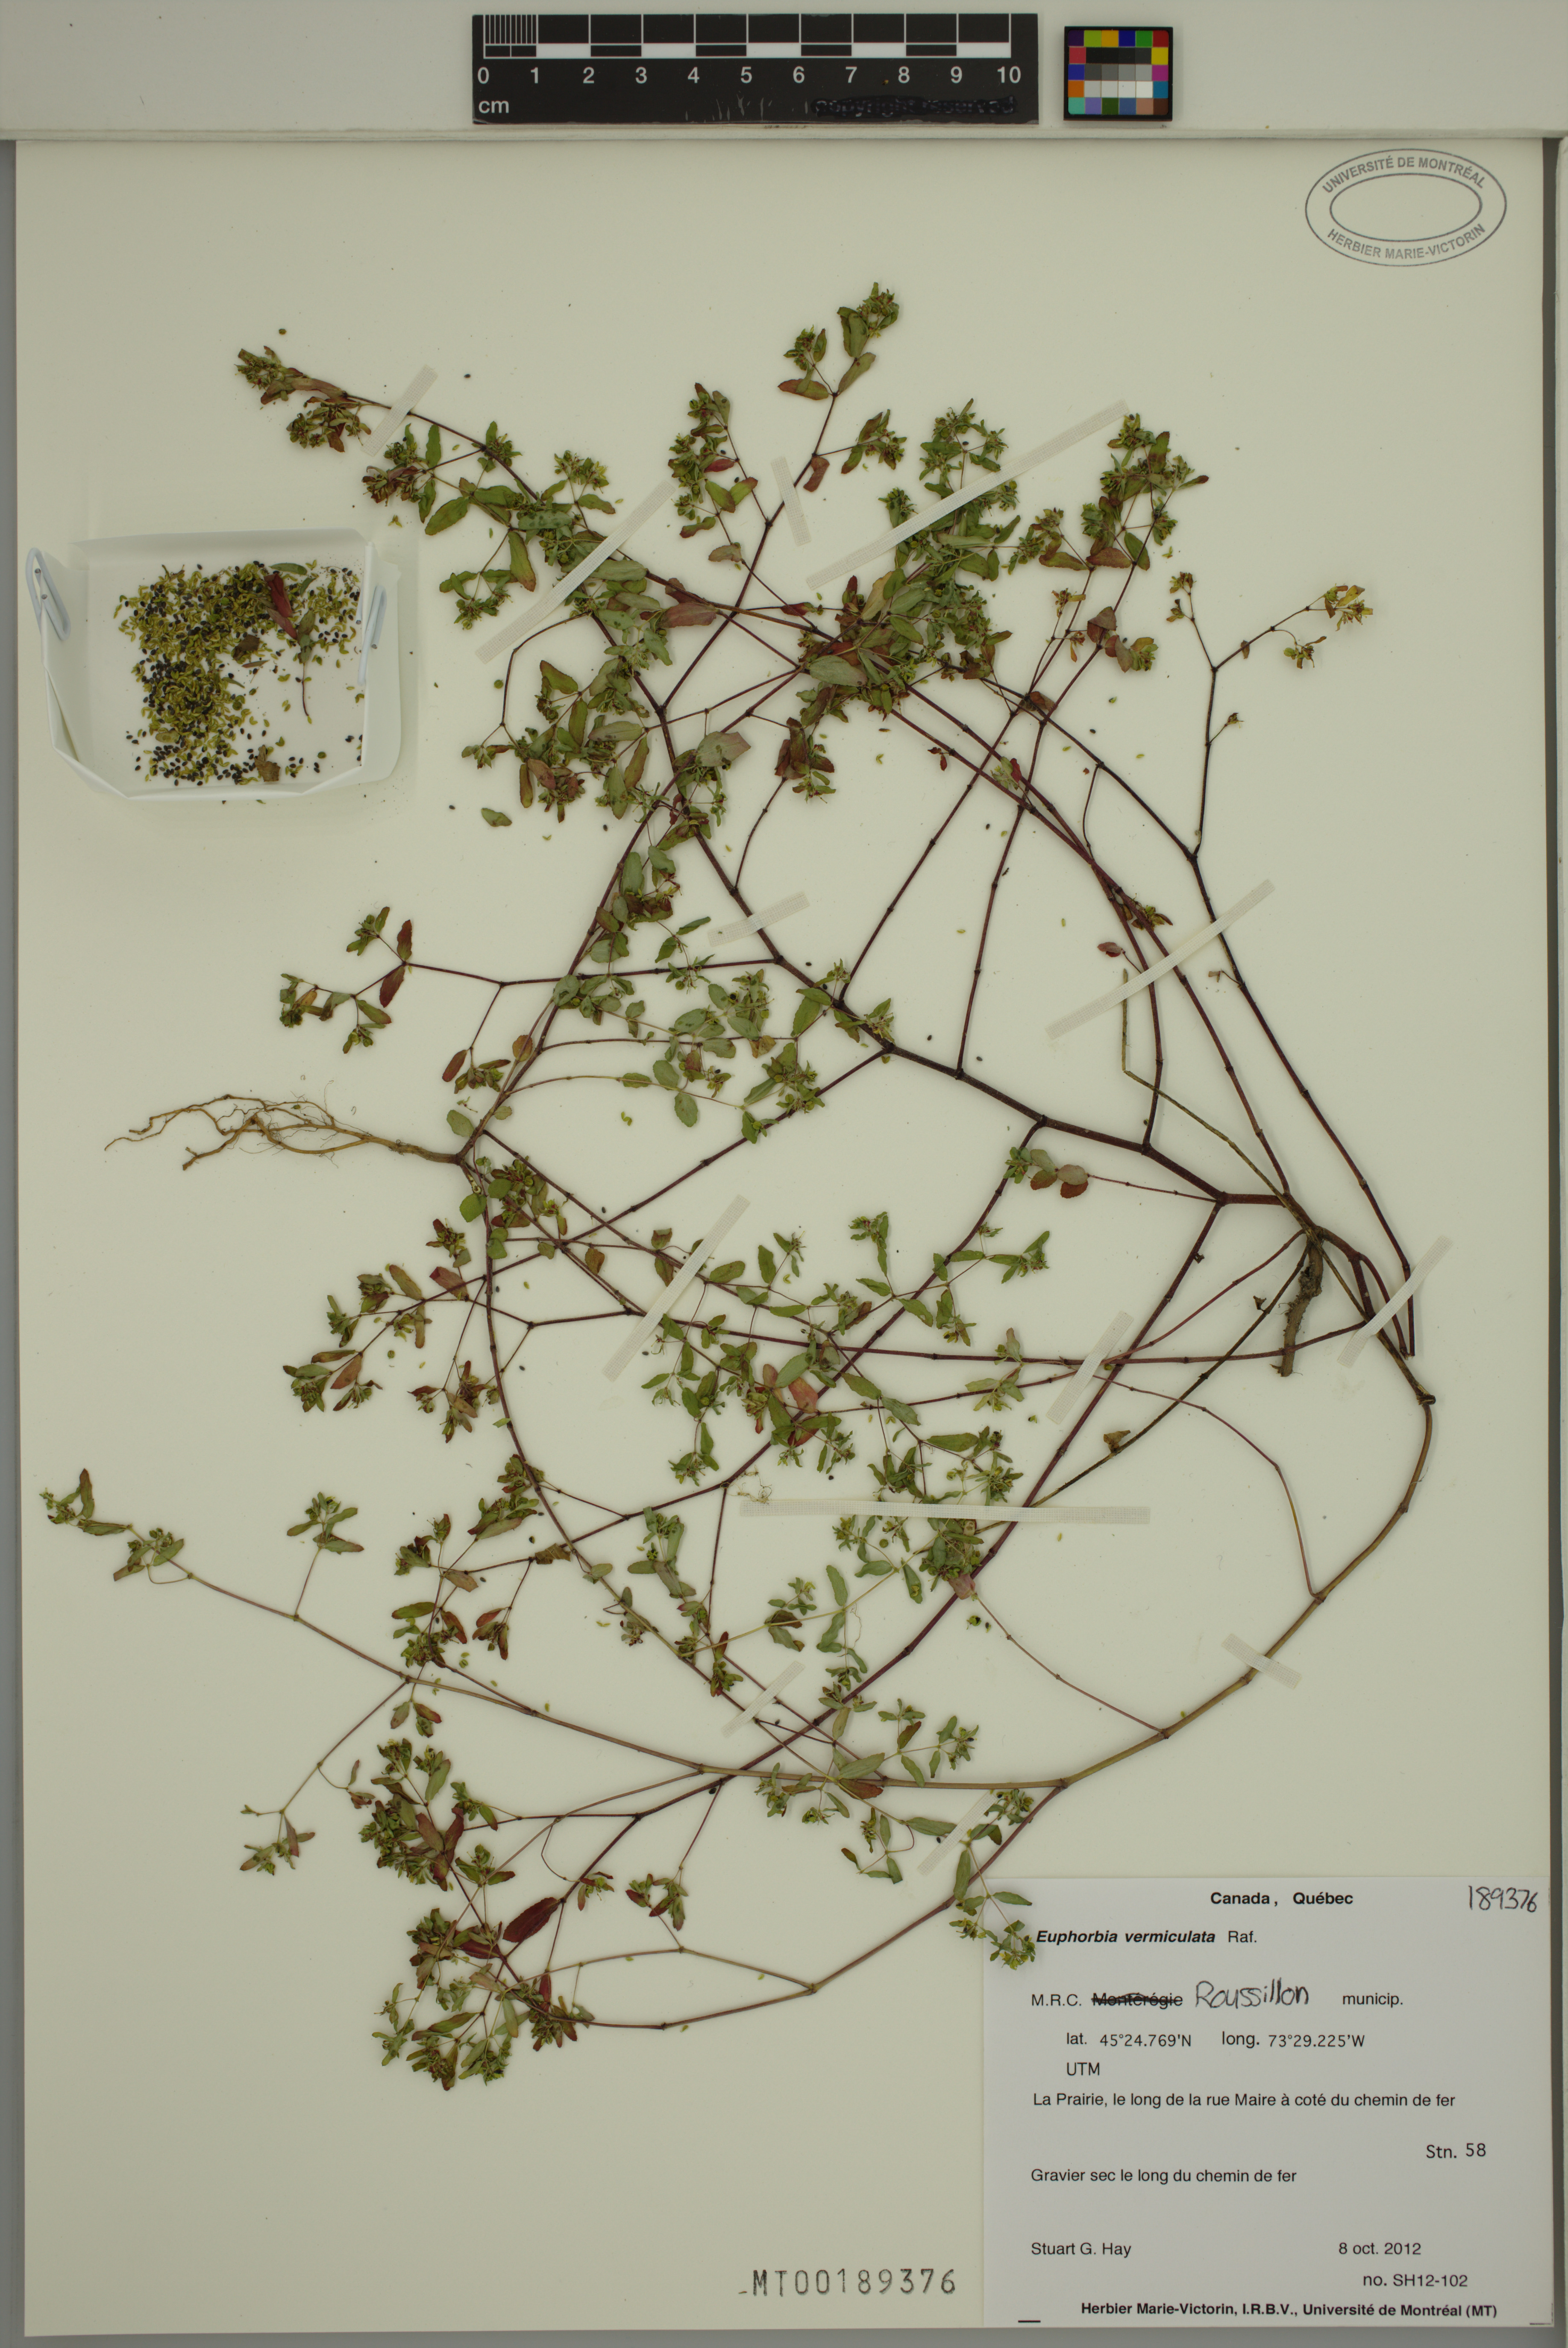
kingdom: Plantae
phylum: Tracheophyta
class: Magnoliopsida
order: Malpighiales
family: Euphorbiaceae
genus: Euphorbia
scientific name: Euphorbia vermiculata
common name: Hairy spurge
